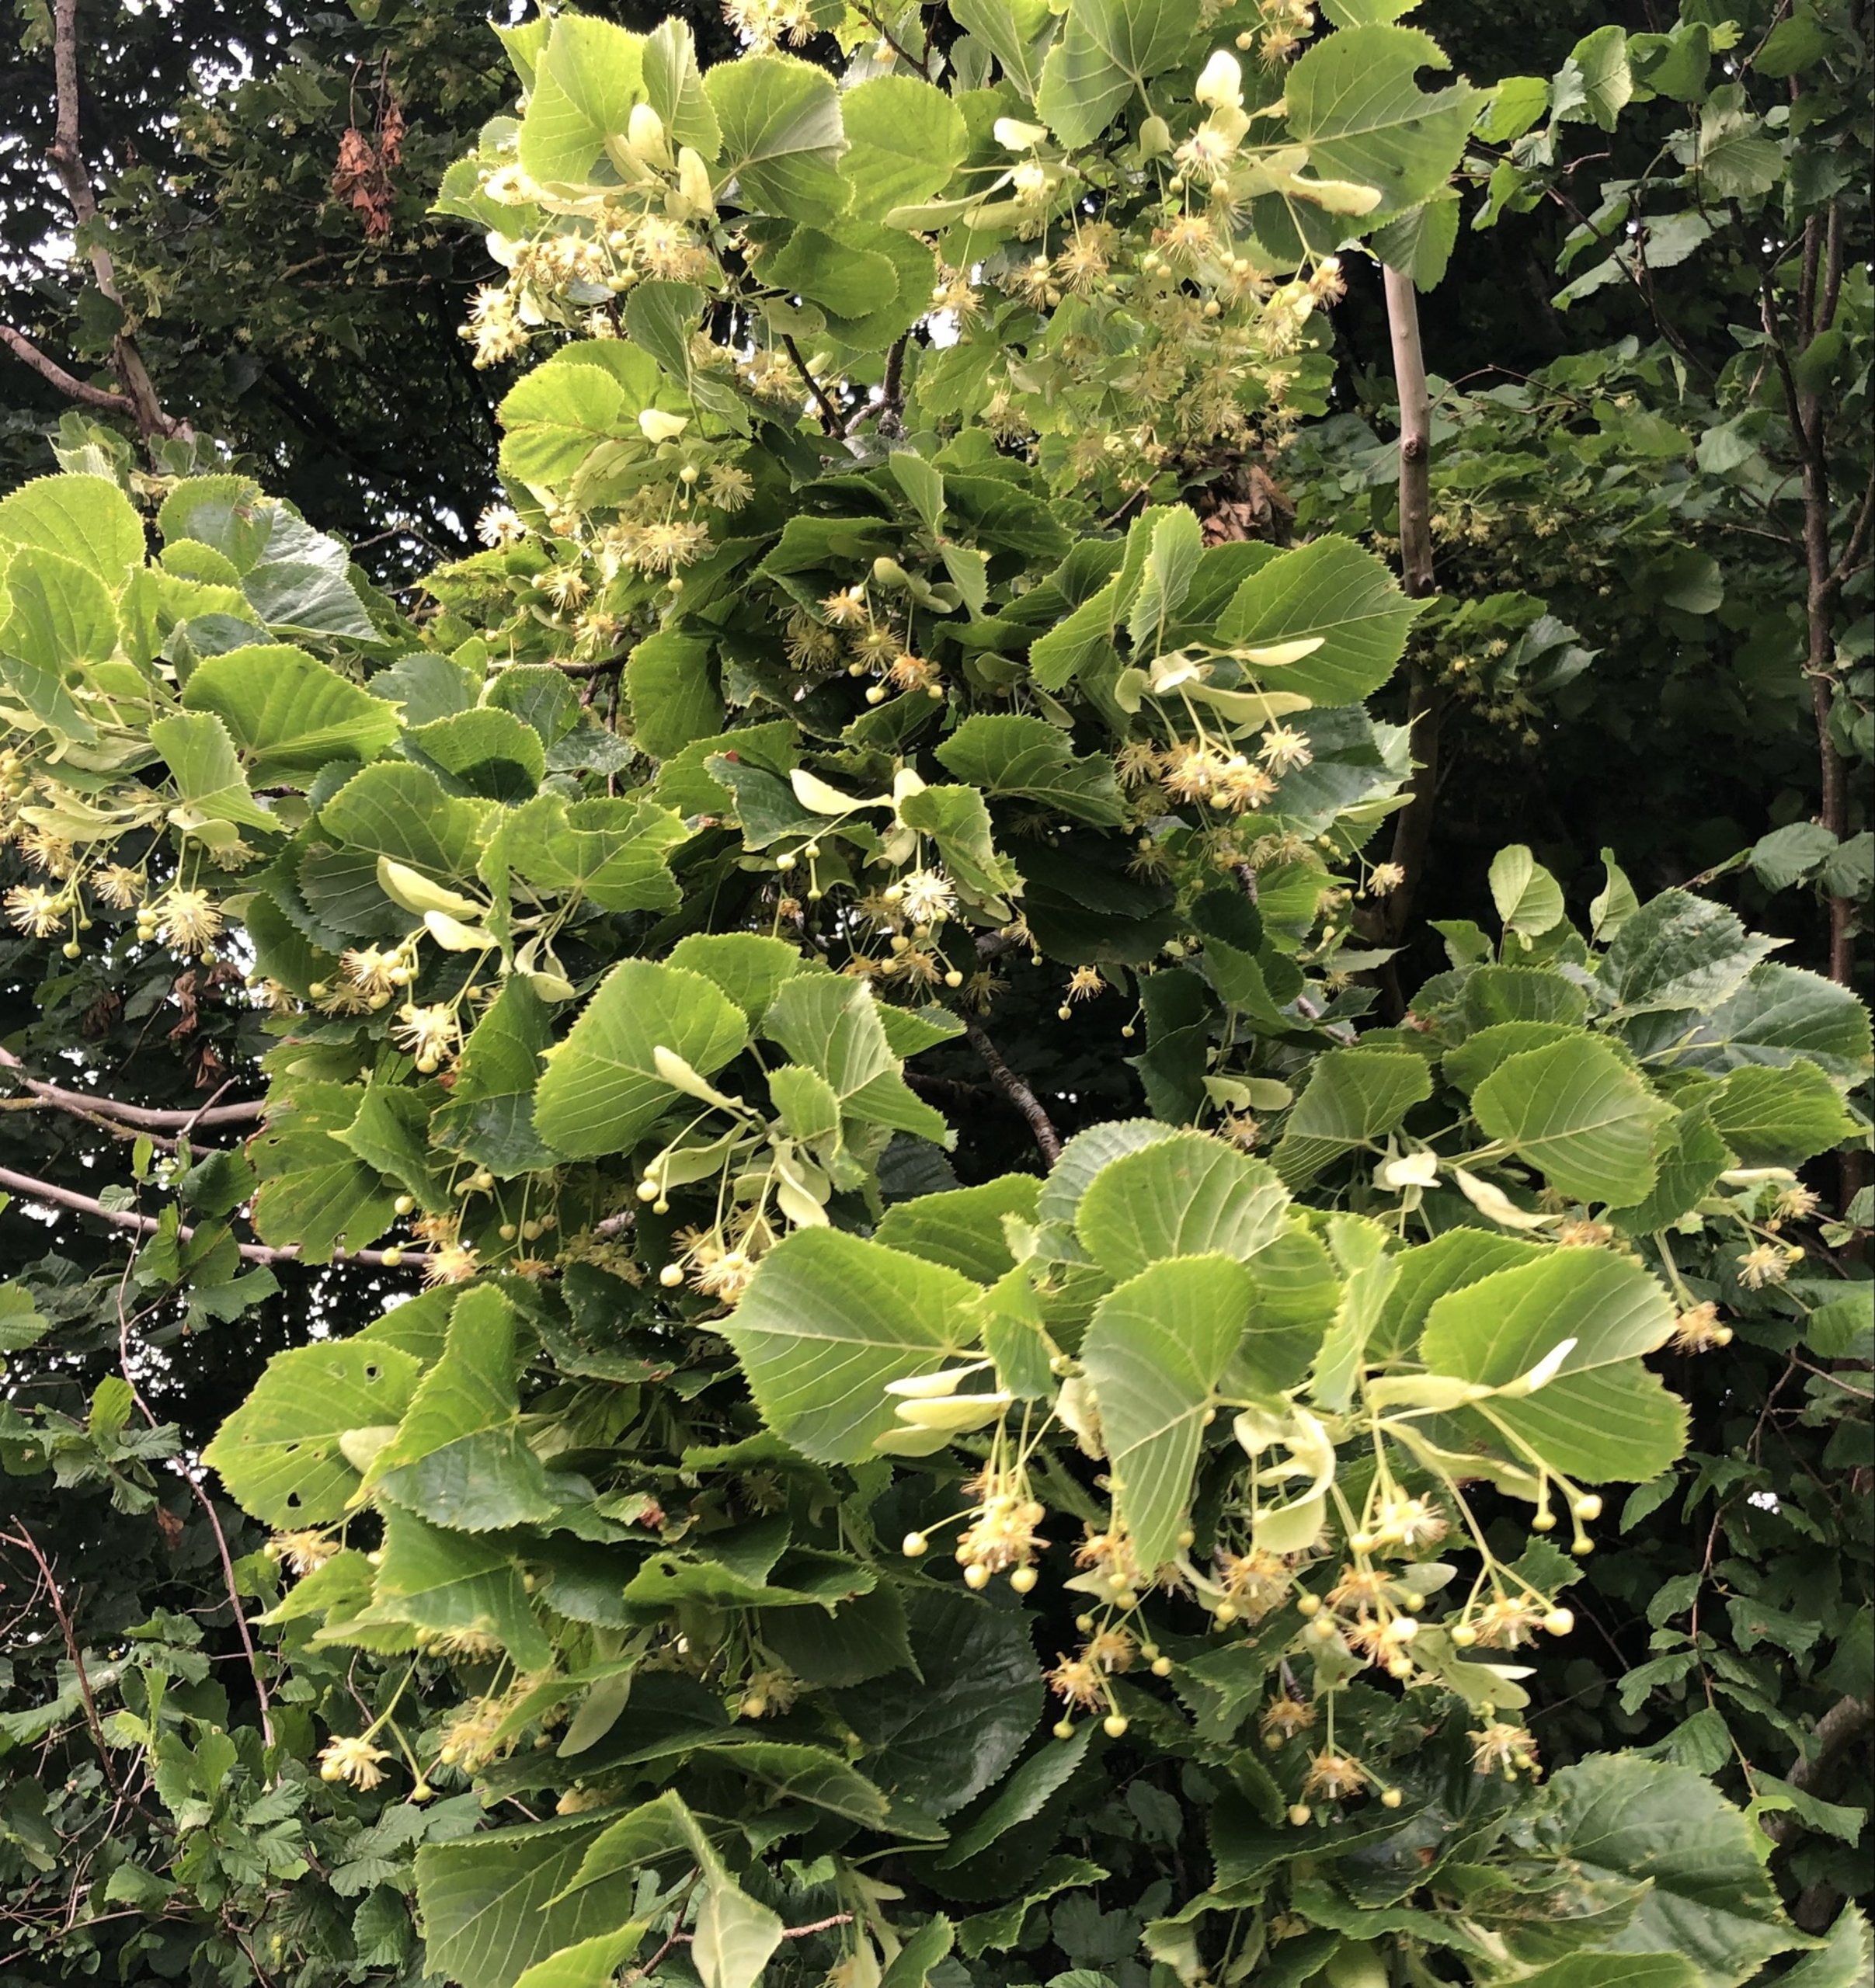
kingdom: Plantae
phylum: Tracheophyta
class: Magnoliopsida
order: Malvales
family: Malvaceae
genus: Tilia
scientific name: Tilia platyphyllos
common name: Storbladet lind
